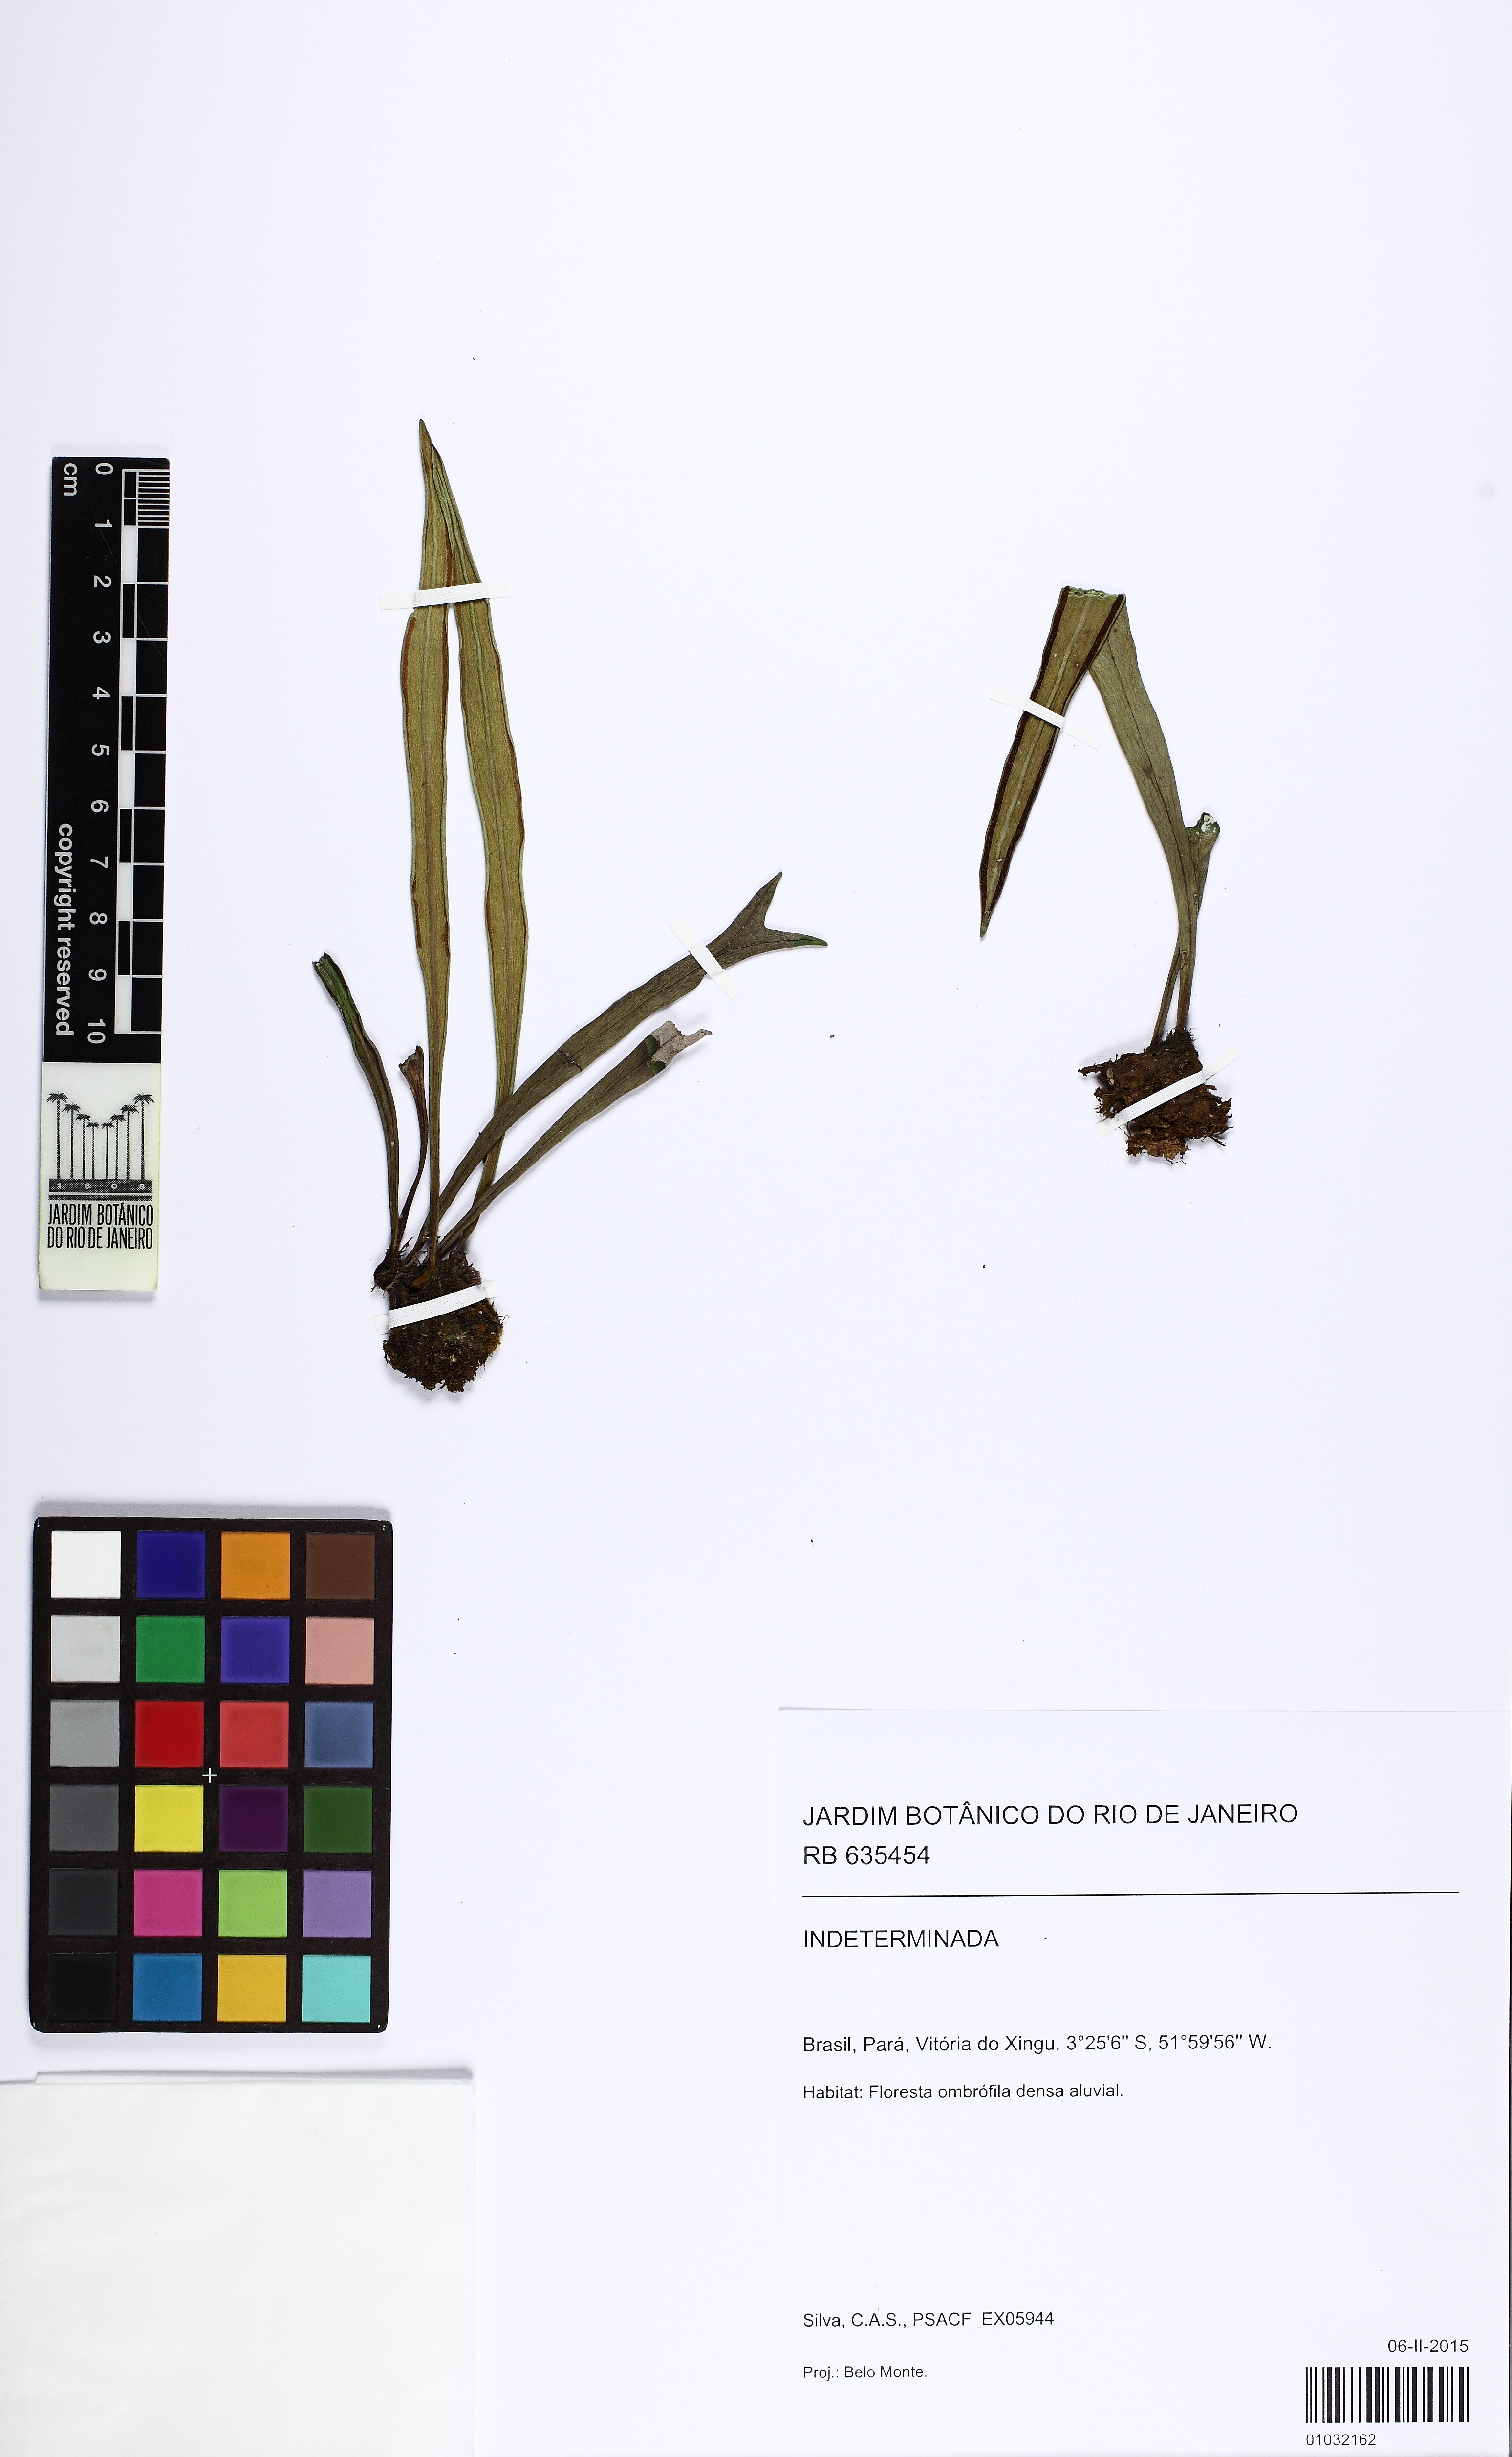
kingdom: Plantae
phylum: Tracheophyta
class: Polypodiopsida
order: Polypodiales
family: Pteridaceae
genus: Radiovittaria
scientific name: Radiovittaria stipitata
